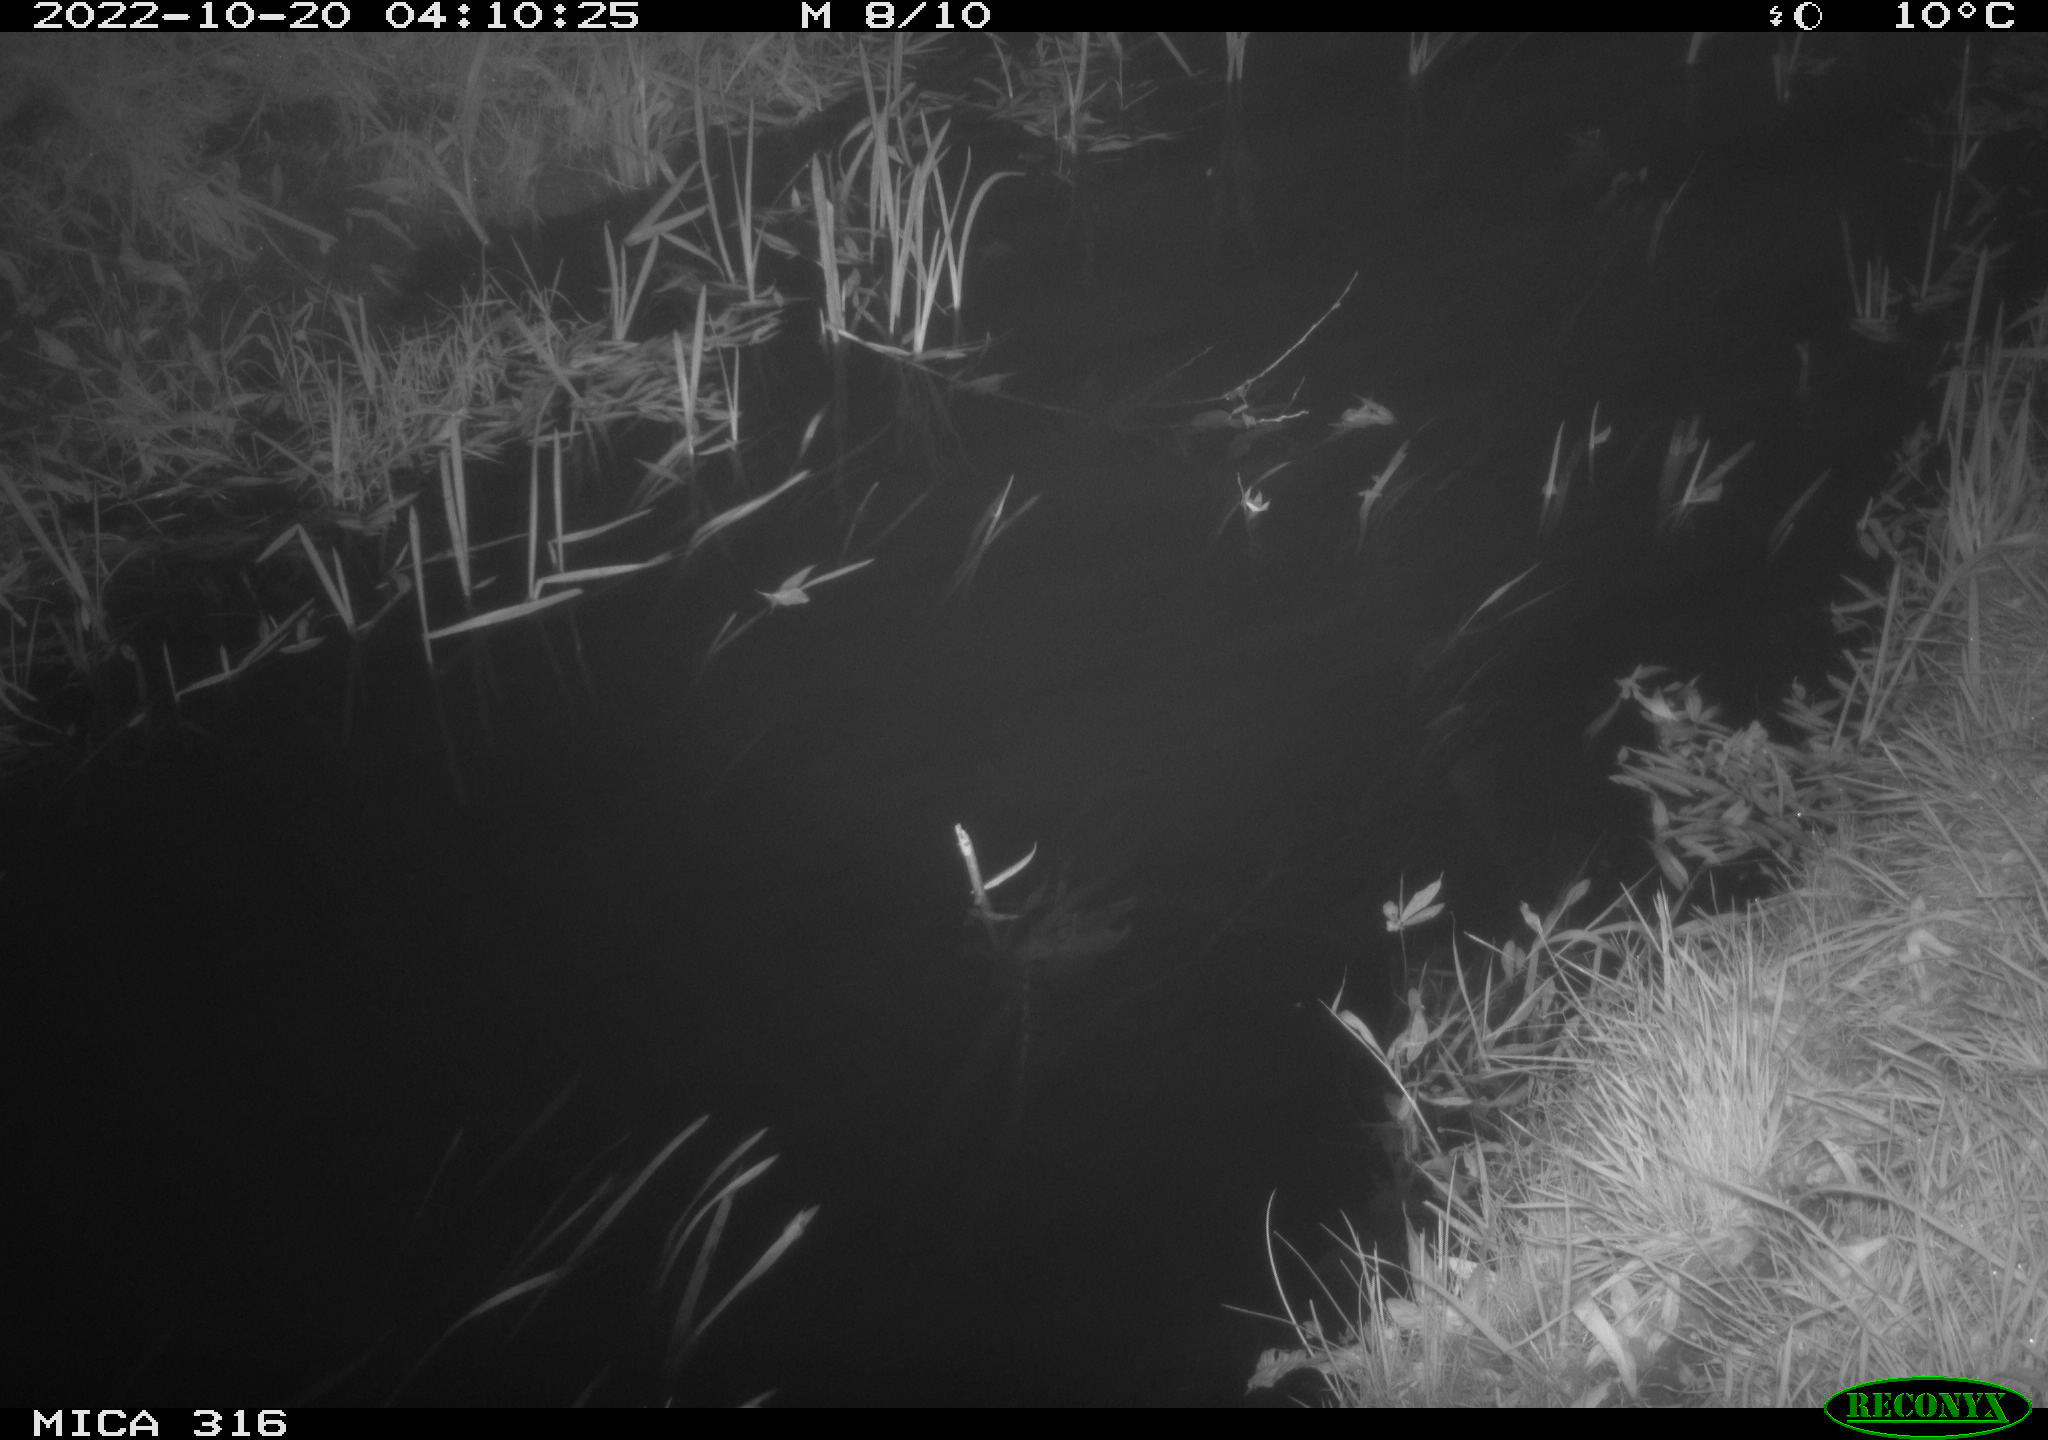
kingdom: Animalia
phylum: Chordata
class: Mammalia
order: Rodentia
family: Muridae
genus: Rattus
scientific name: Rattus norvegicus
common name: Brown rat
